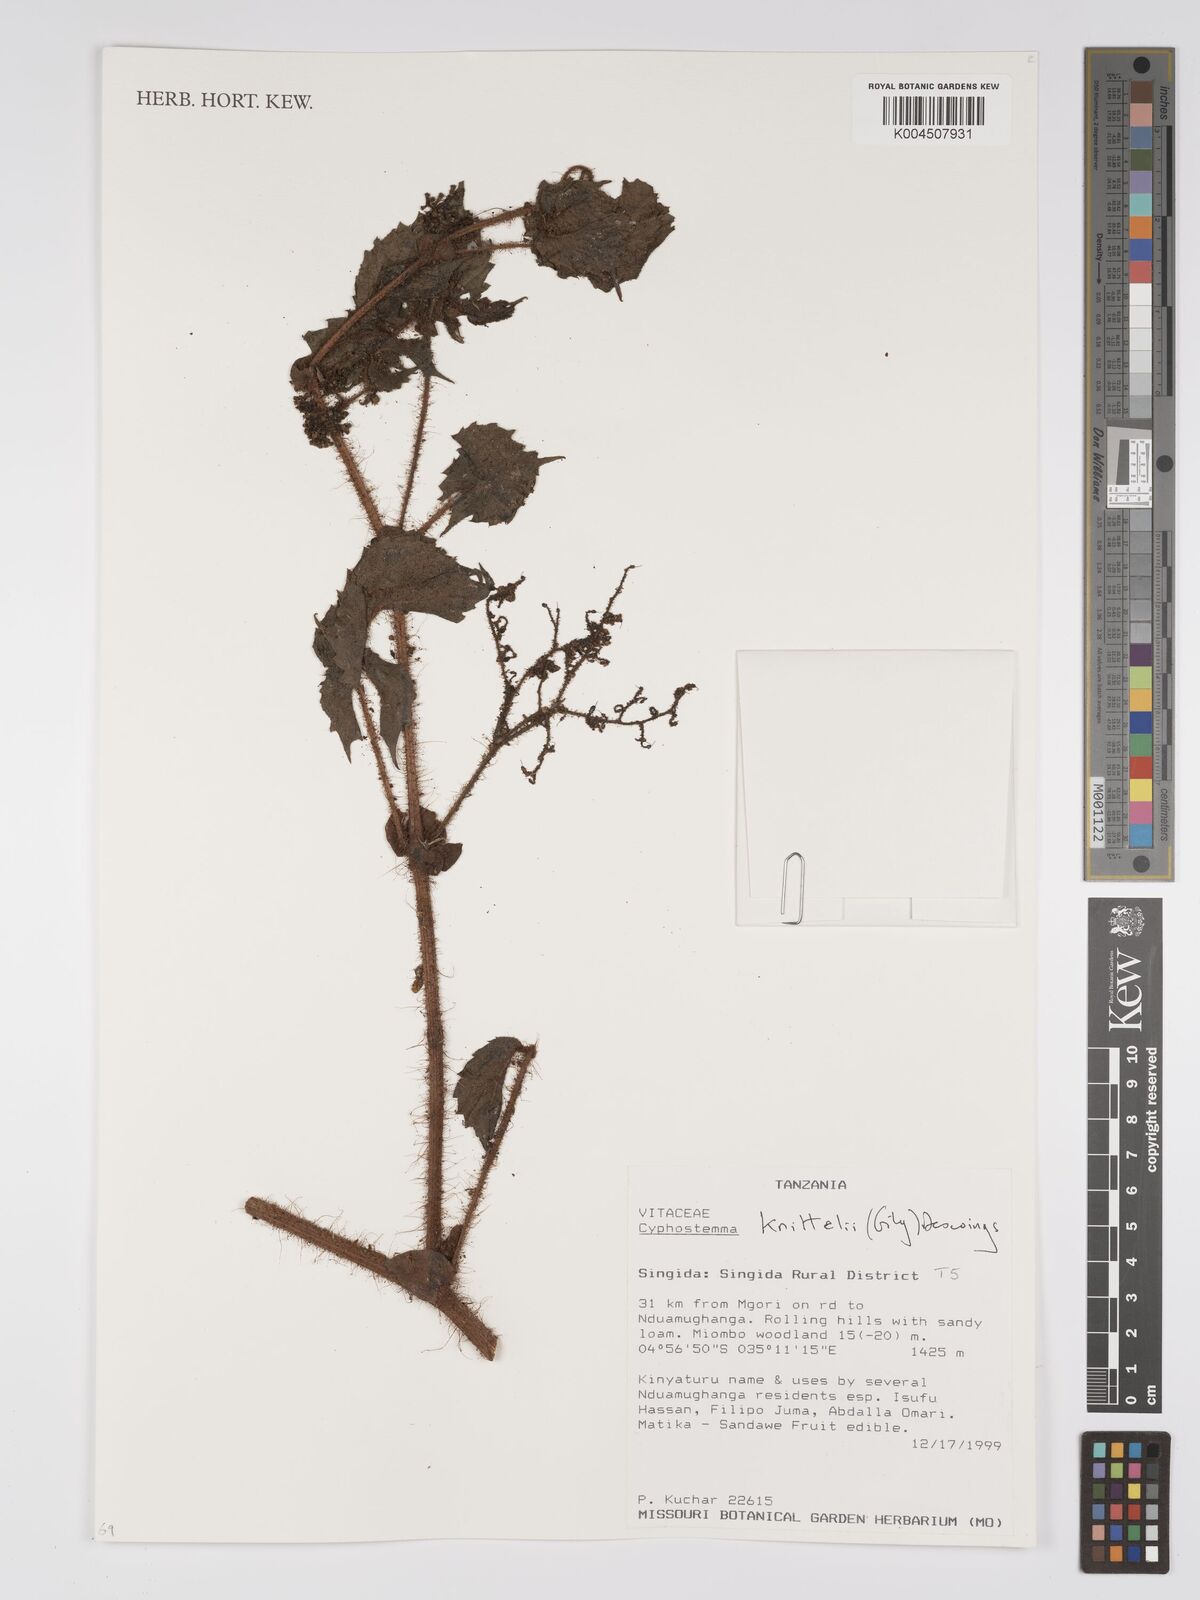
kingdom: Plantae
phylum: Tracheophyta
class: Magnoliopsida
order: Vitales
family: Vitaceae
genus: Cyphostemma
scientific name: Cyphostemma knittelii
